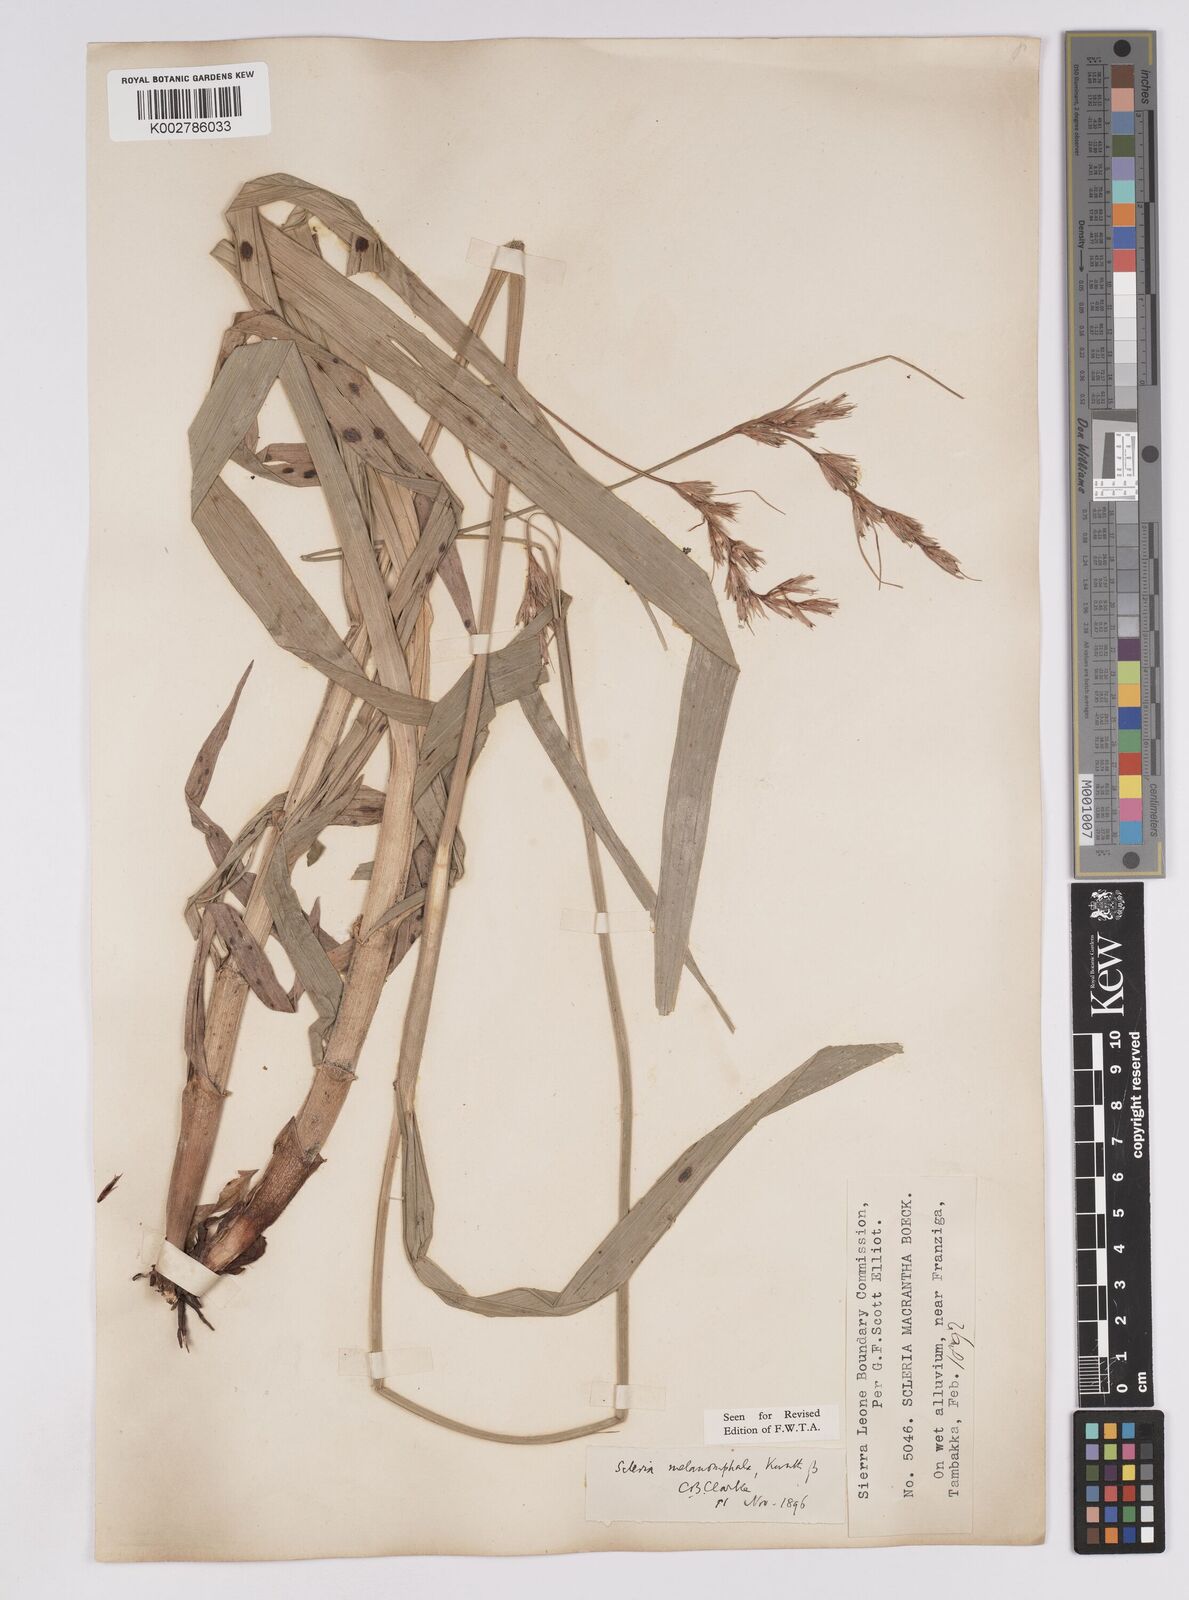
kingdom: Plantae
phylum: Tracheophyta
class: Liliopsida
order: Poales
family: Cyperaceae
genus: Scleria
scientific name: Scleria melanomphala
